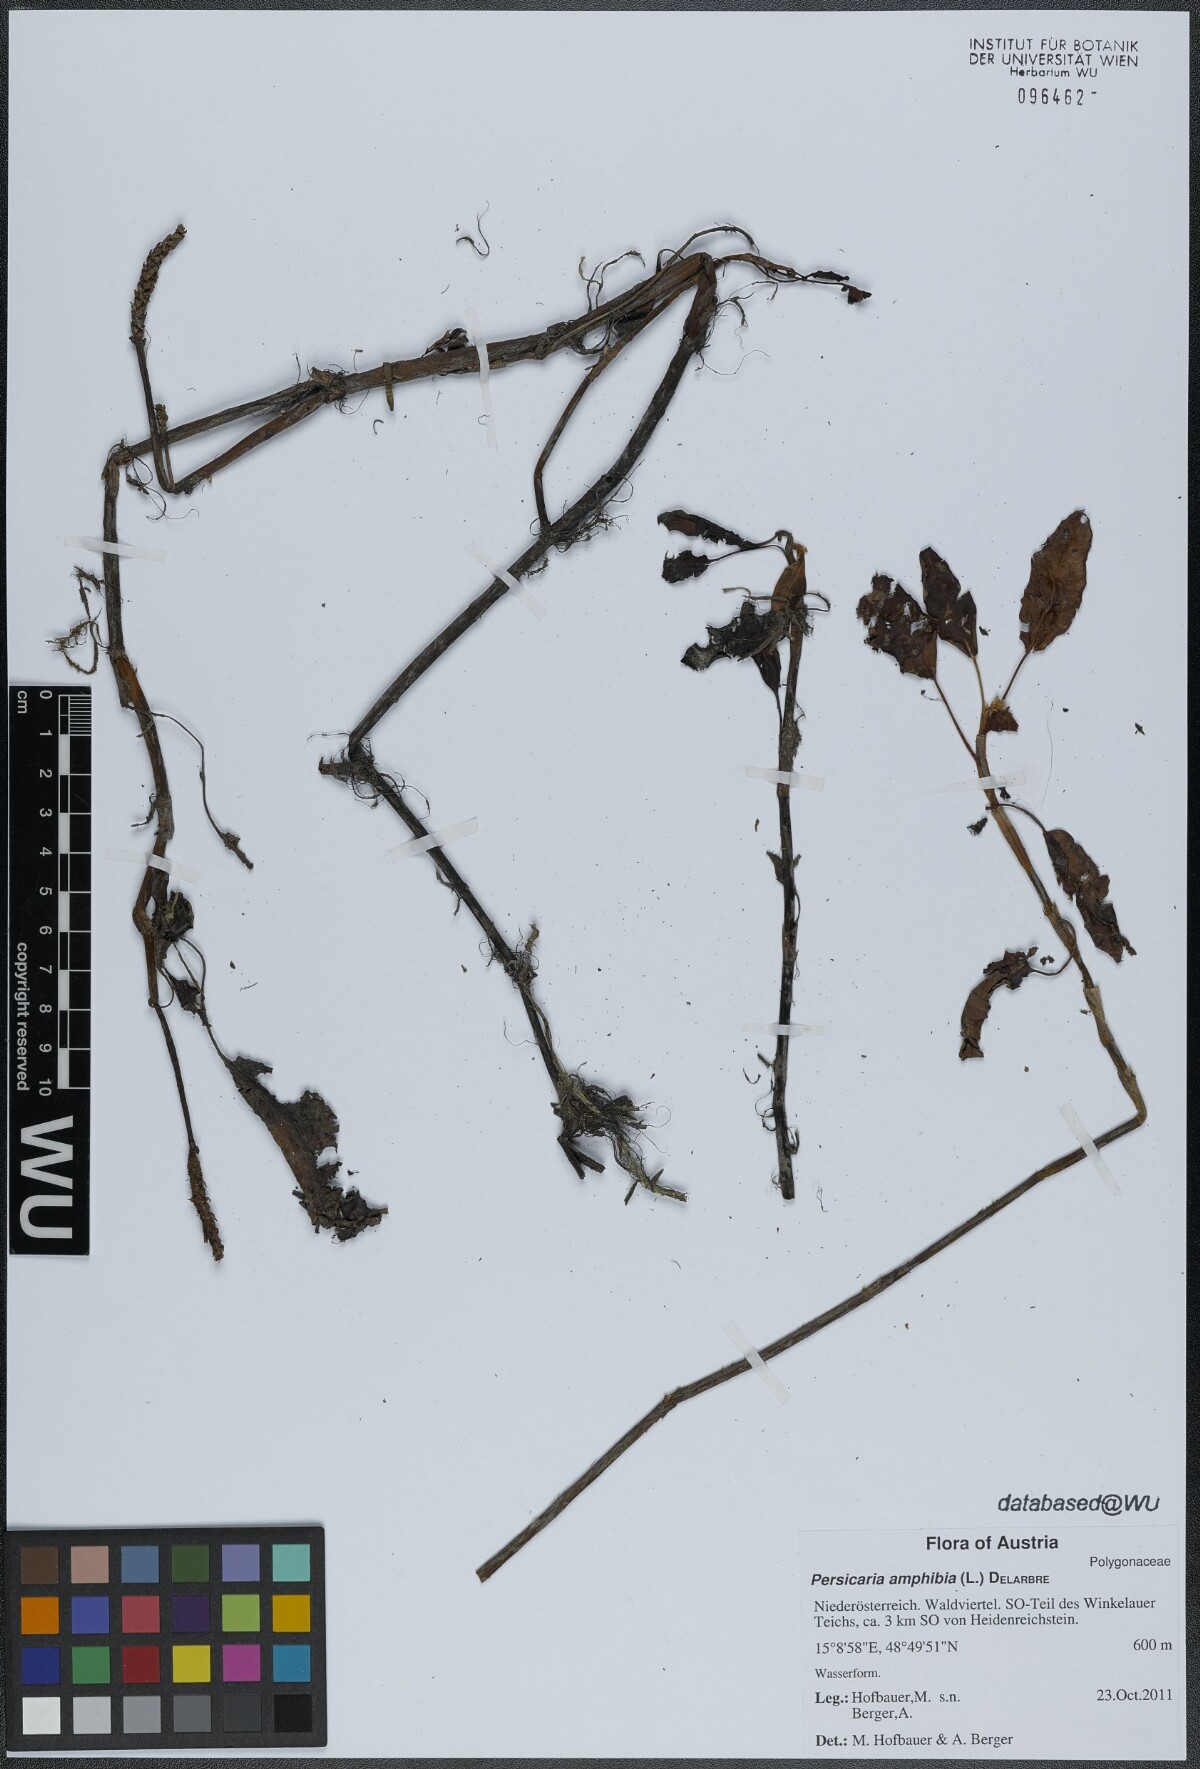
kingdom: Plantae
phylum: Tracheophyta
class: Magnoliopsida
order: Caryophyllales
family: Polygonaceae
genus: Persicaria
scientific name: Persicaria amphibia
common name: Amphibious bistort
